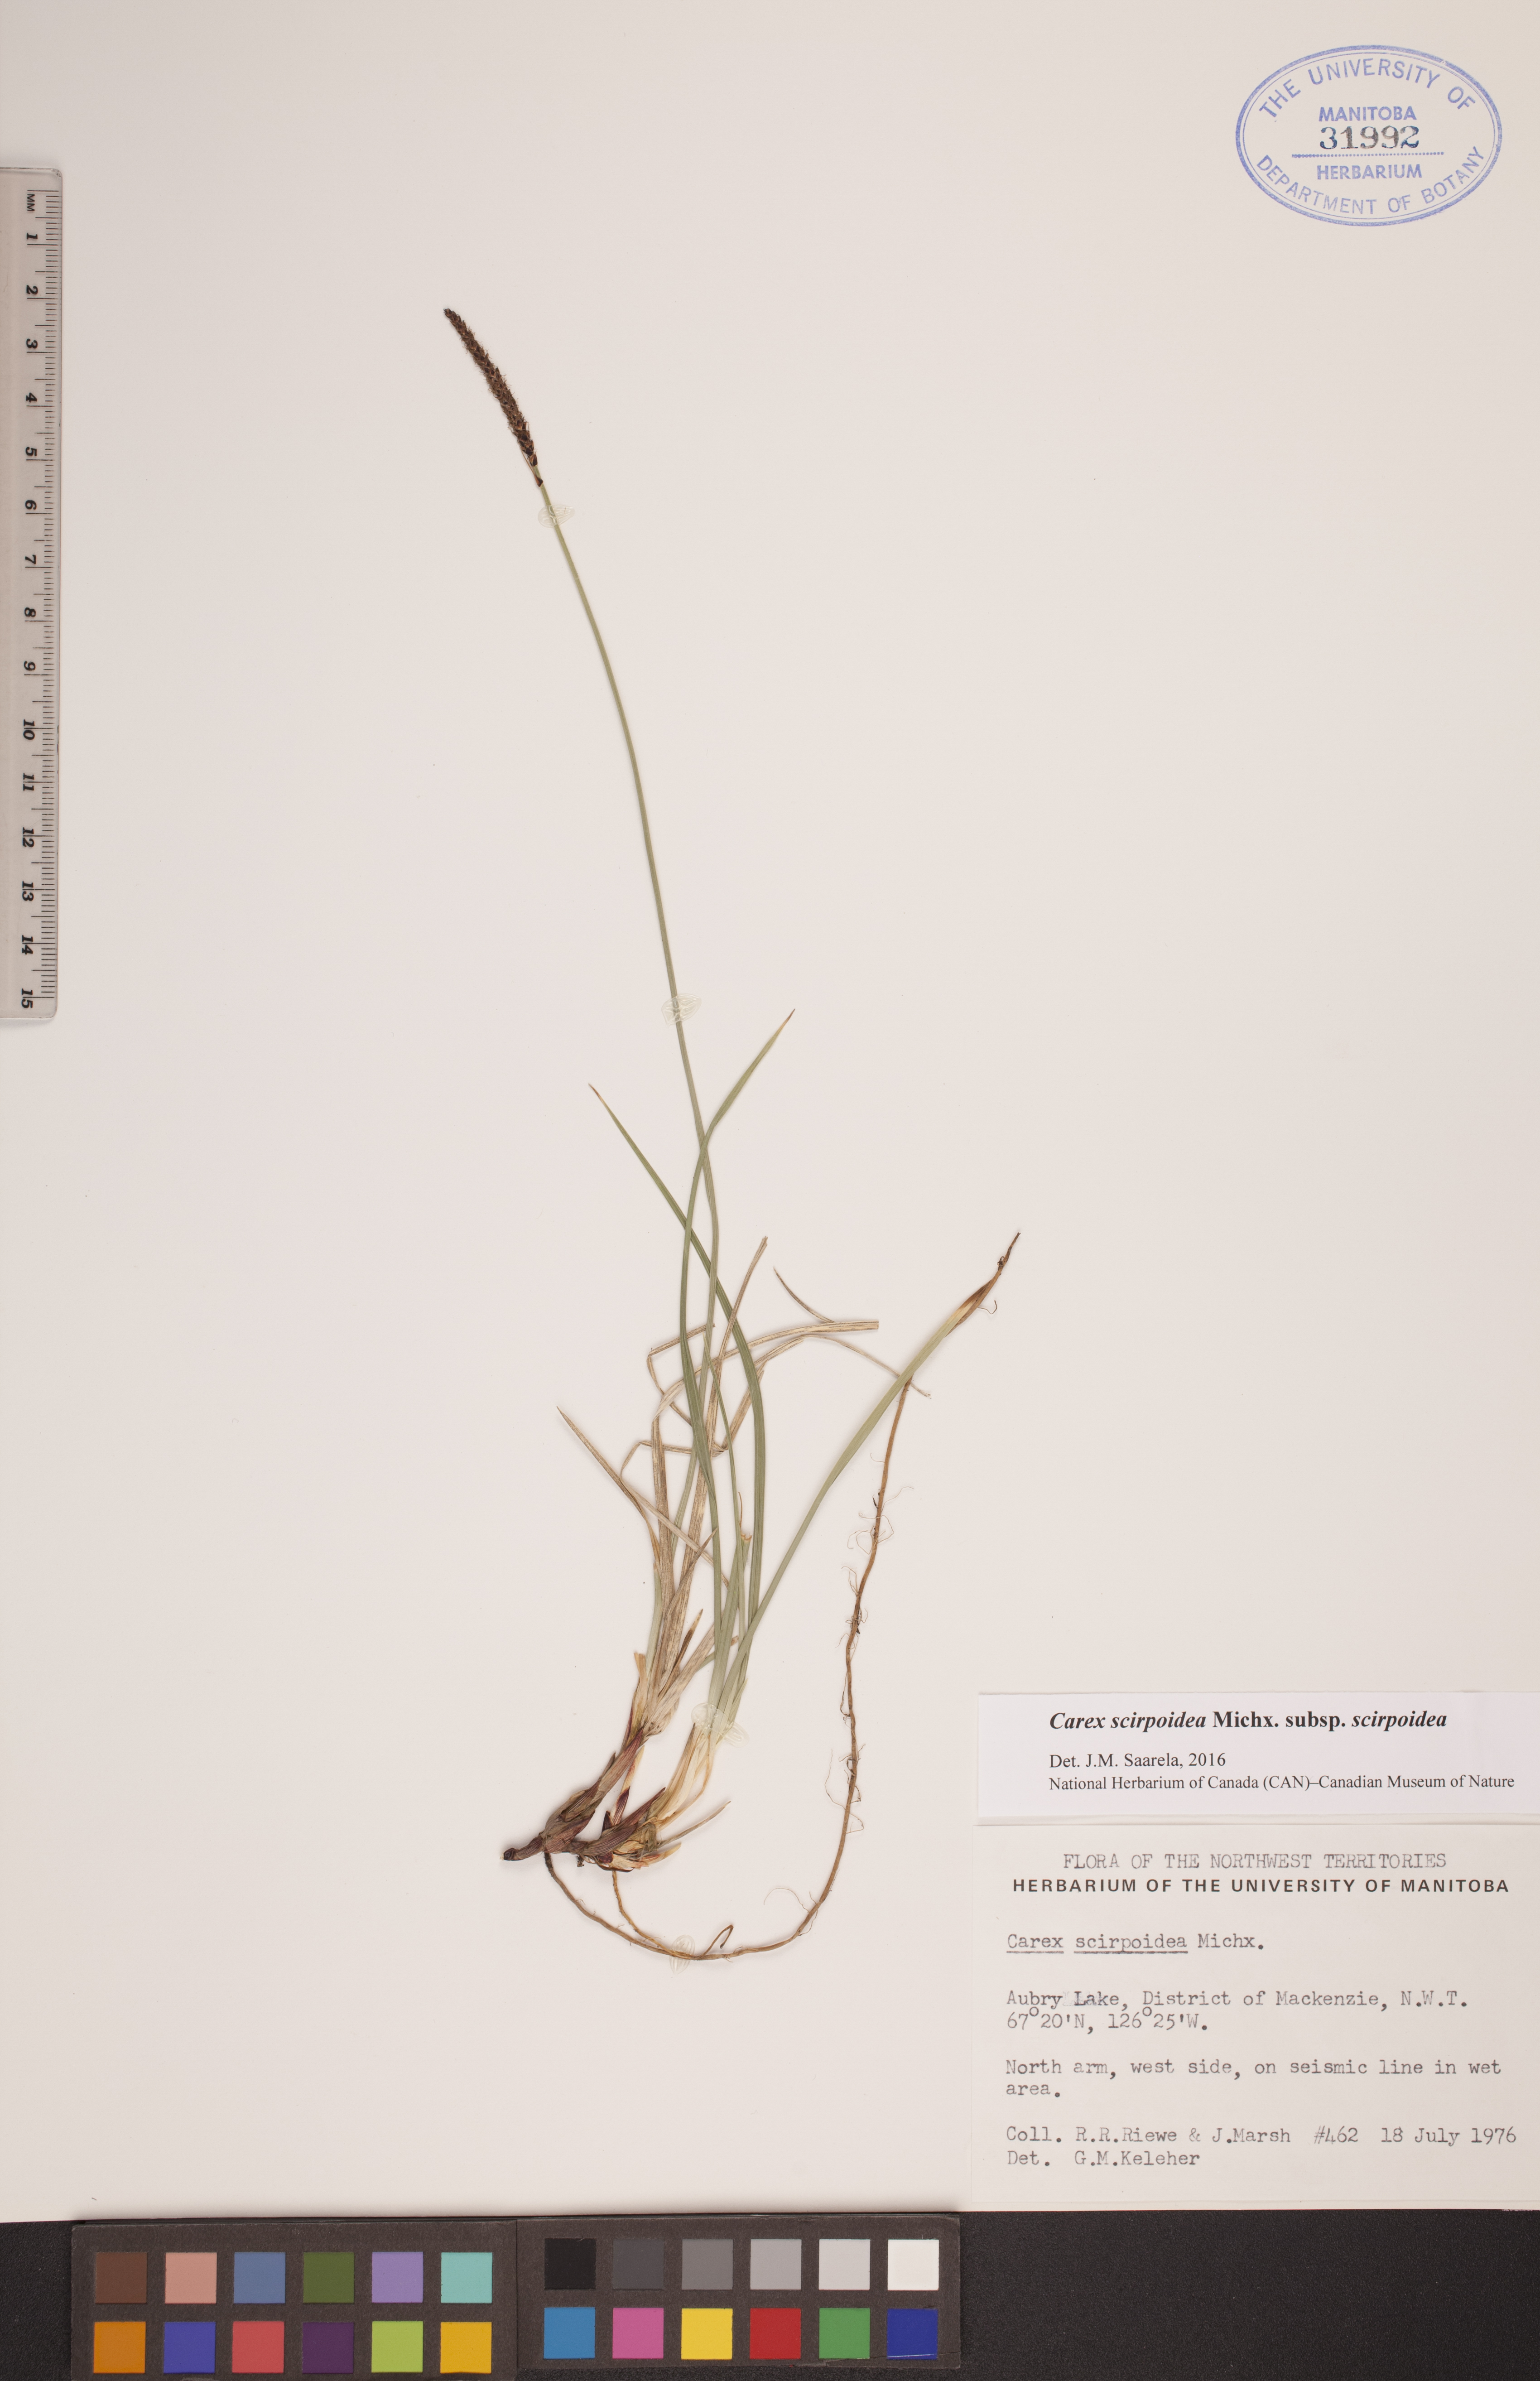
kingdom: Plantae
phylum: Tracheophyta
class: Liliopsida
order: Poales
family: Cyperaceae
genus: Carex
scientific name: Carex scirpoidea
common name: Canada single-spike sedge
